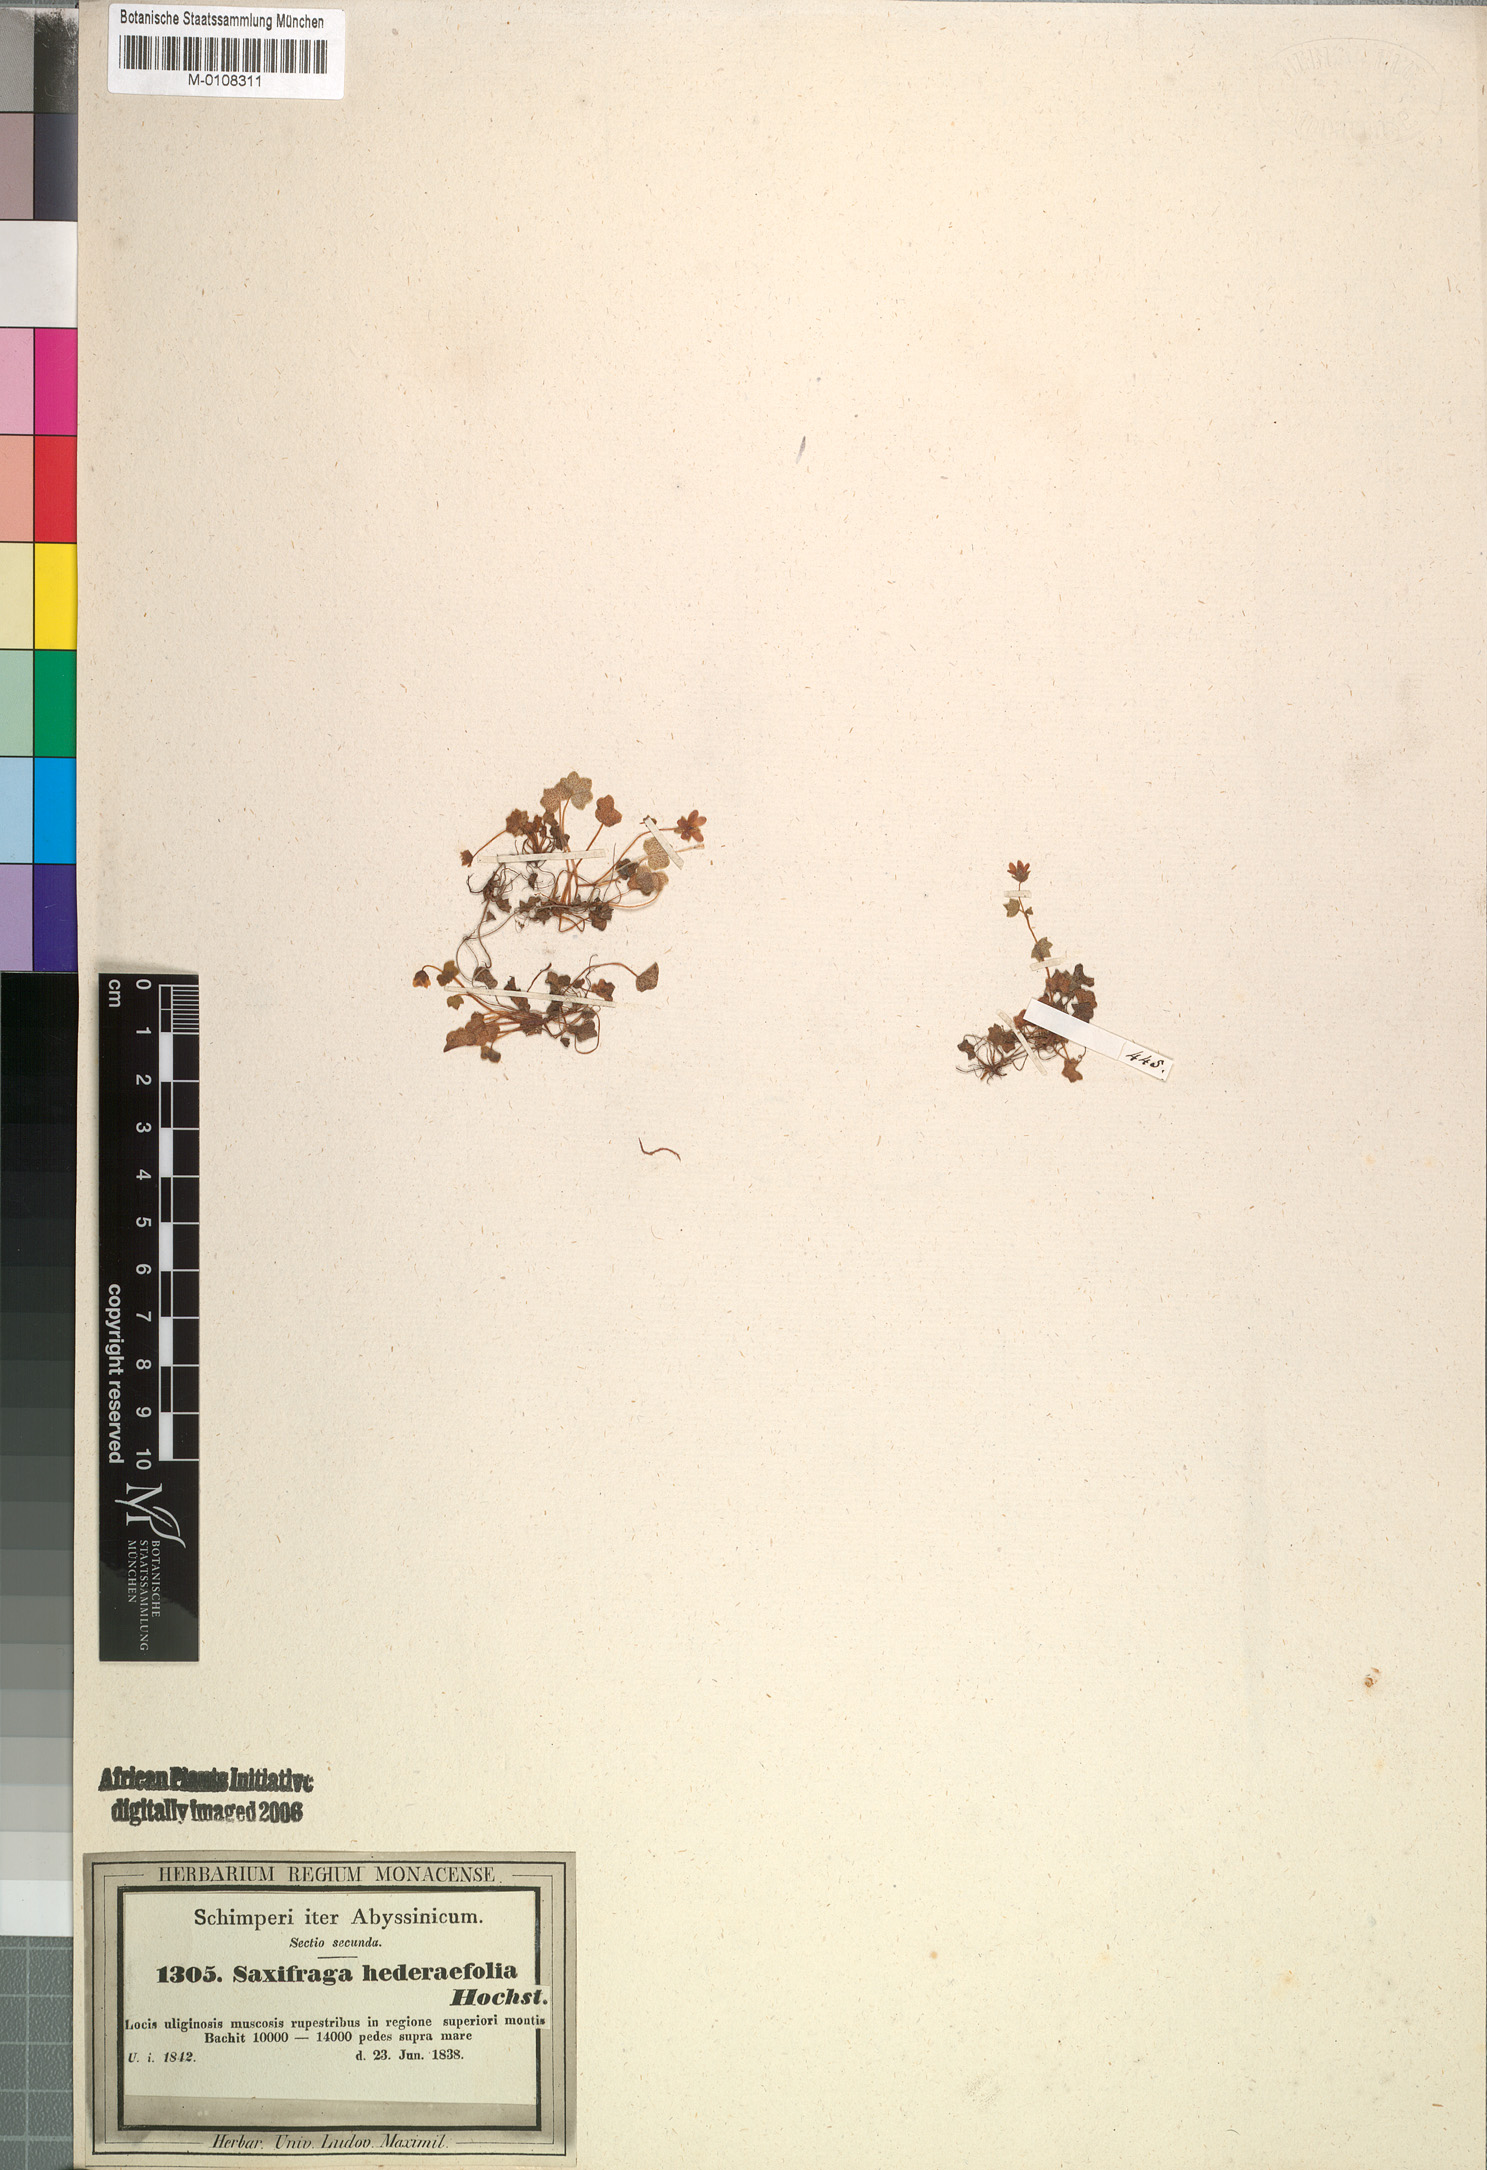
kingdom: Plantae
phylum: Tracheophyta
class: Magnoliopsida
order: Saxifragales
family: Saxifragaceae
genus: Saxifraga
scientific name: Saxifraga hederifolia
